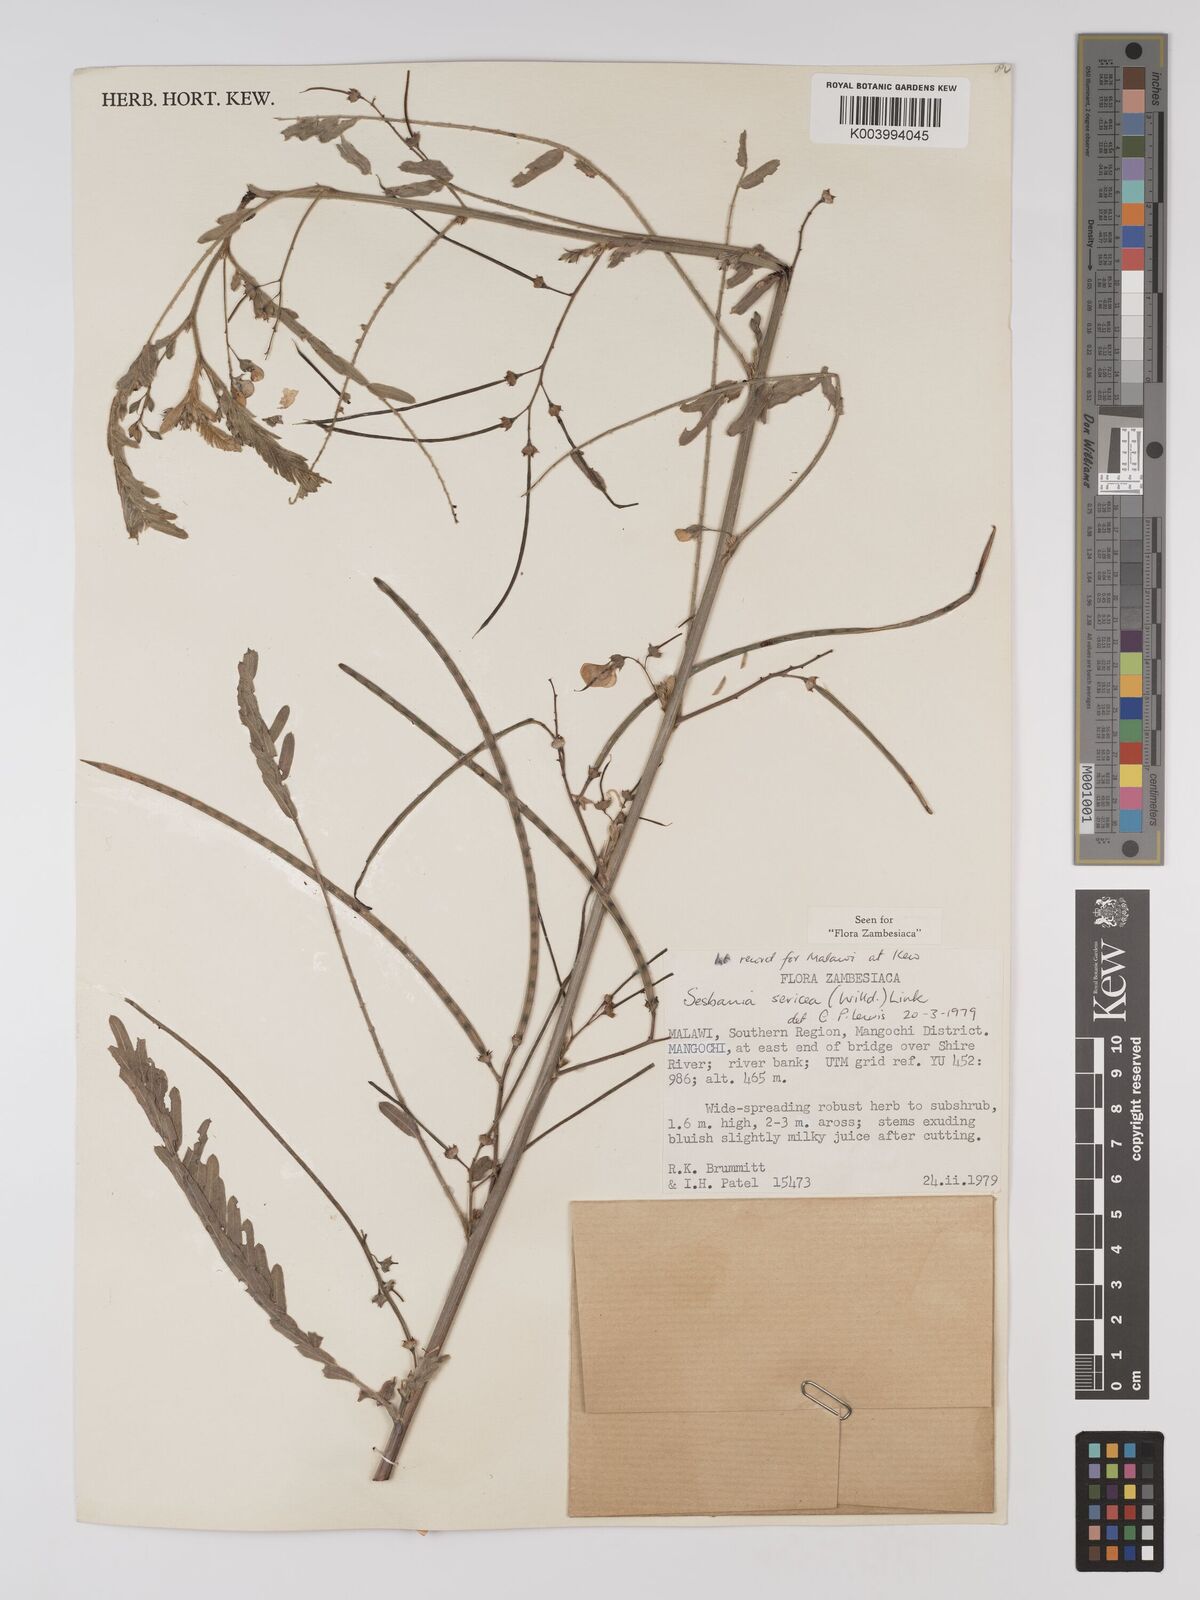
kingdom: Plantae
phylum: Tracheophyta
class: Magnoliopsida
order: Fabales
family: Fabaceae
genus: Sesbania
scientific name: Sesbania sericea
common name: Papagayo
